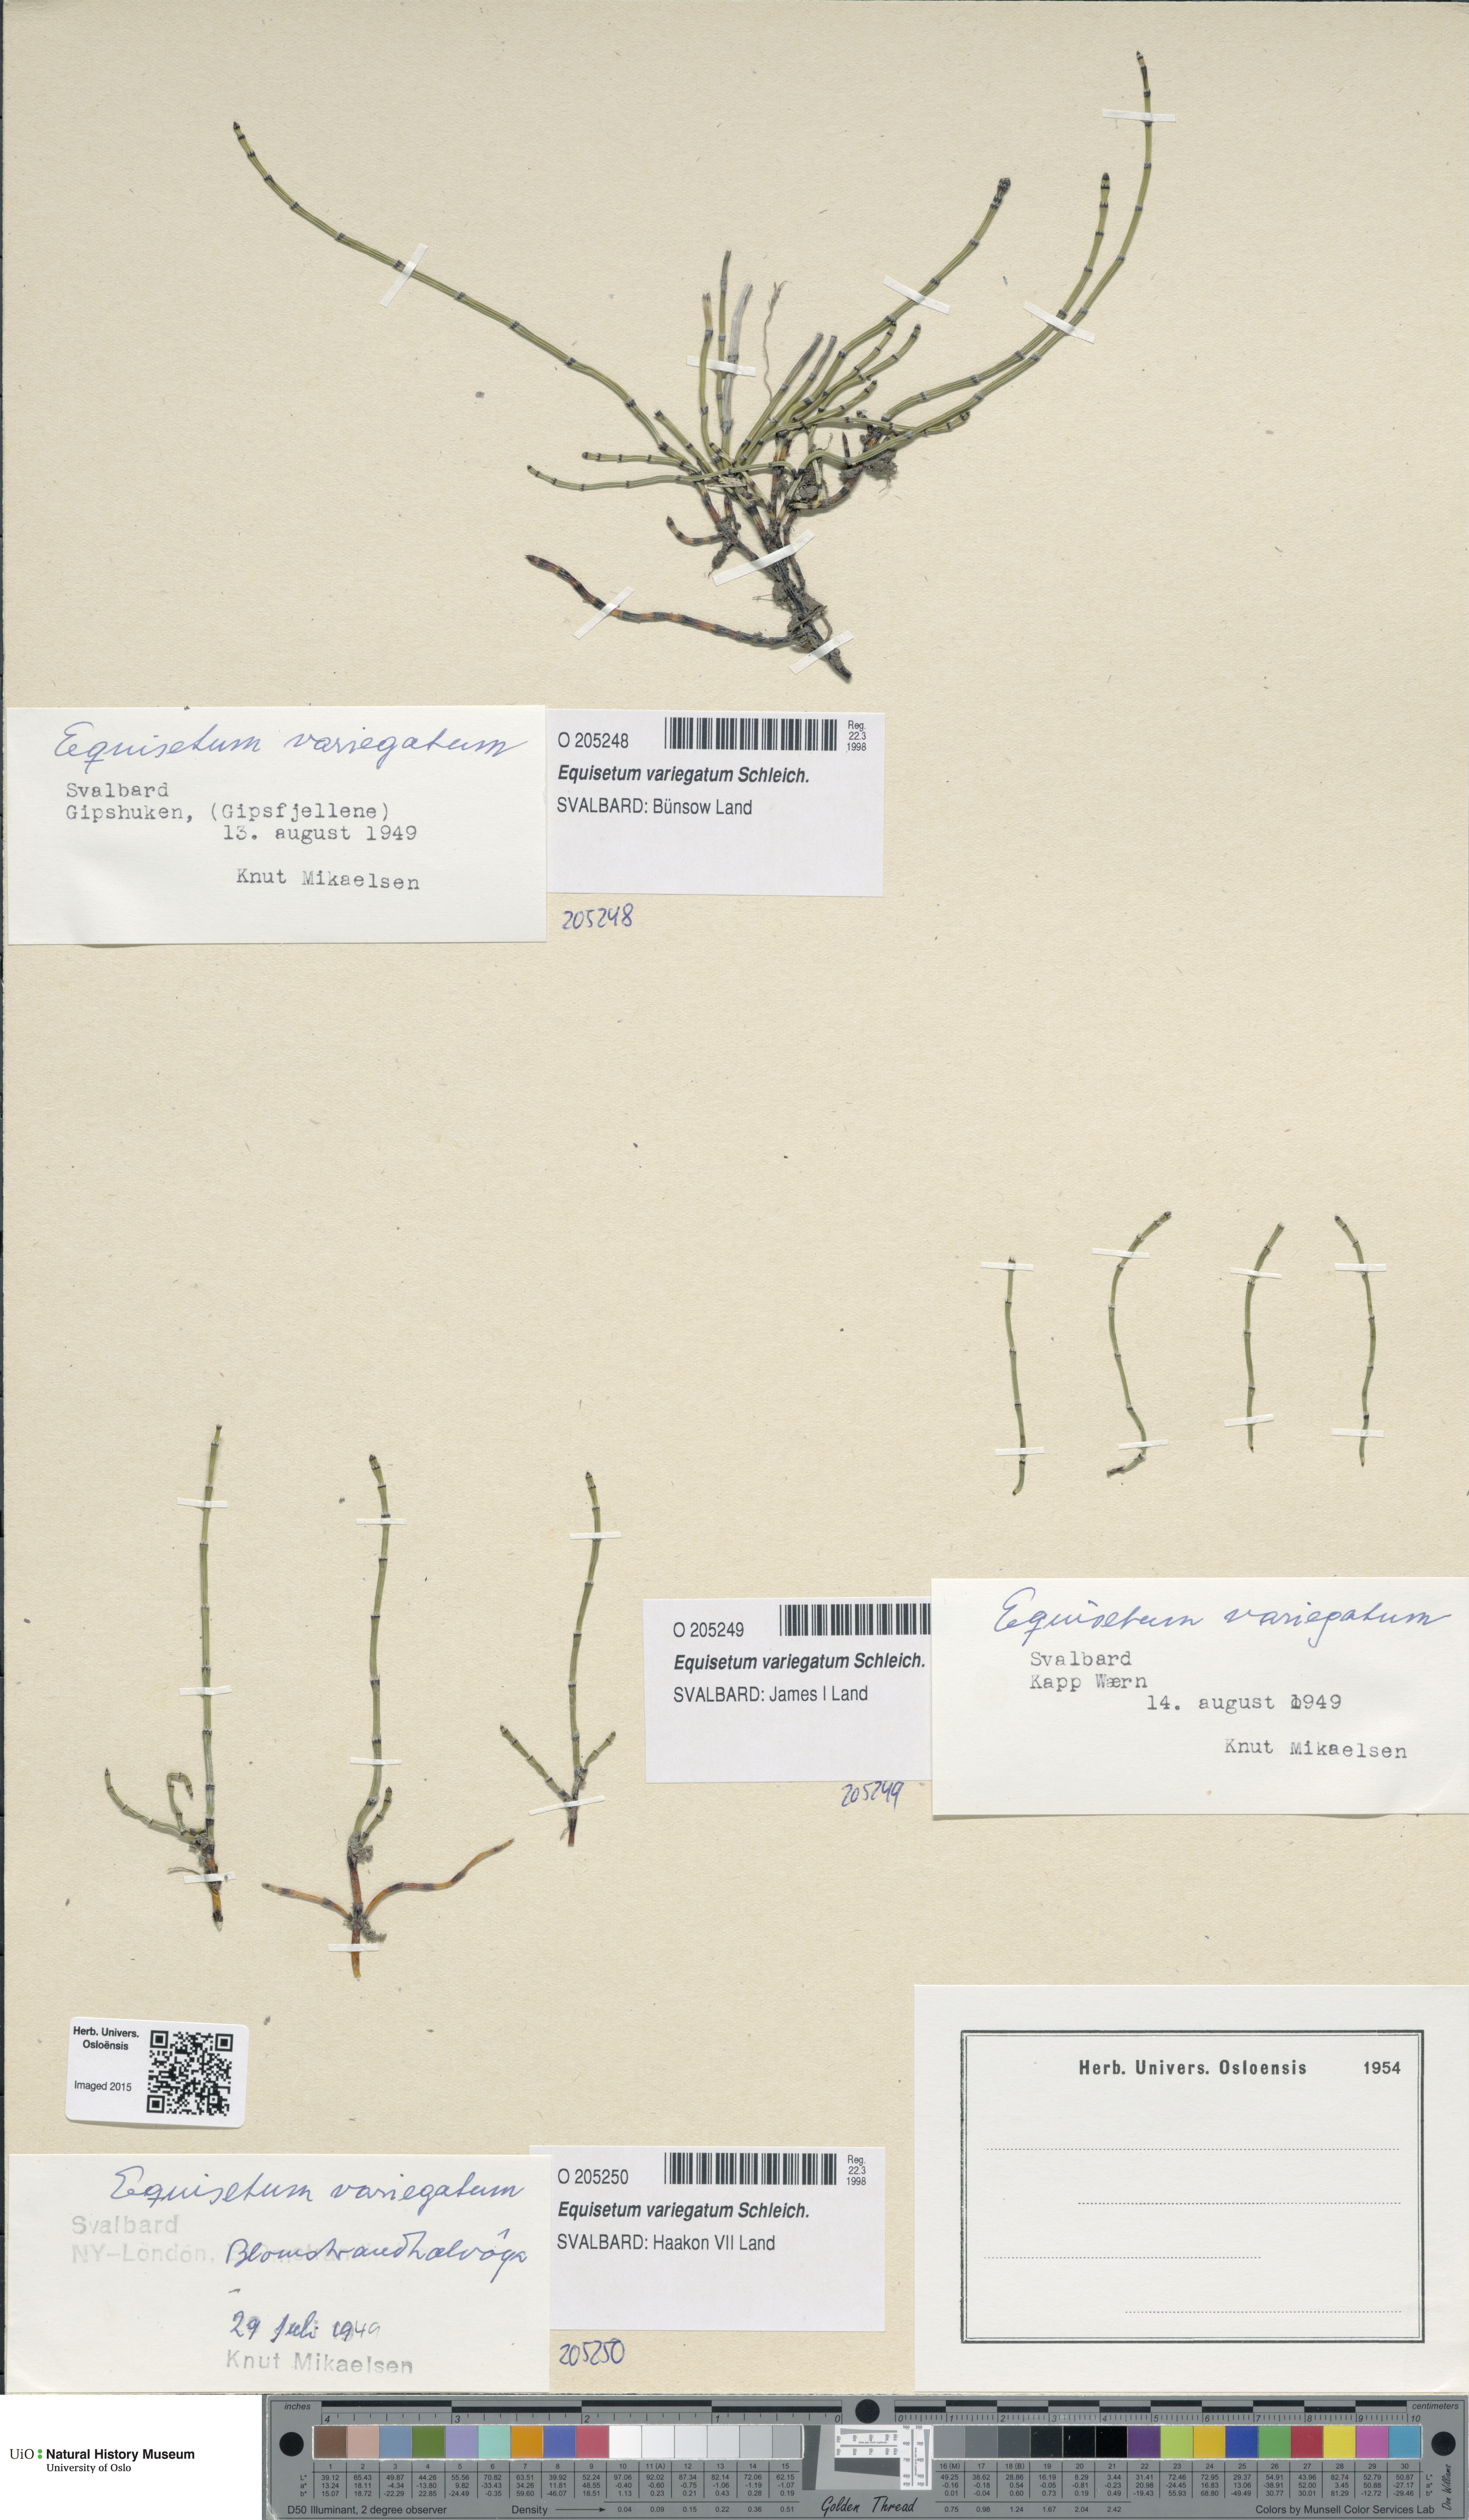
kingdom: Plantae
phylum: Tracheophyta
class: Polypodiopsida
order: Equisetales
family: Equisetaceae
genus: Equisetum
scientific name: Equisetum variegatum
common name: Variegated horsetail
